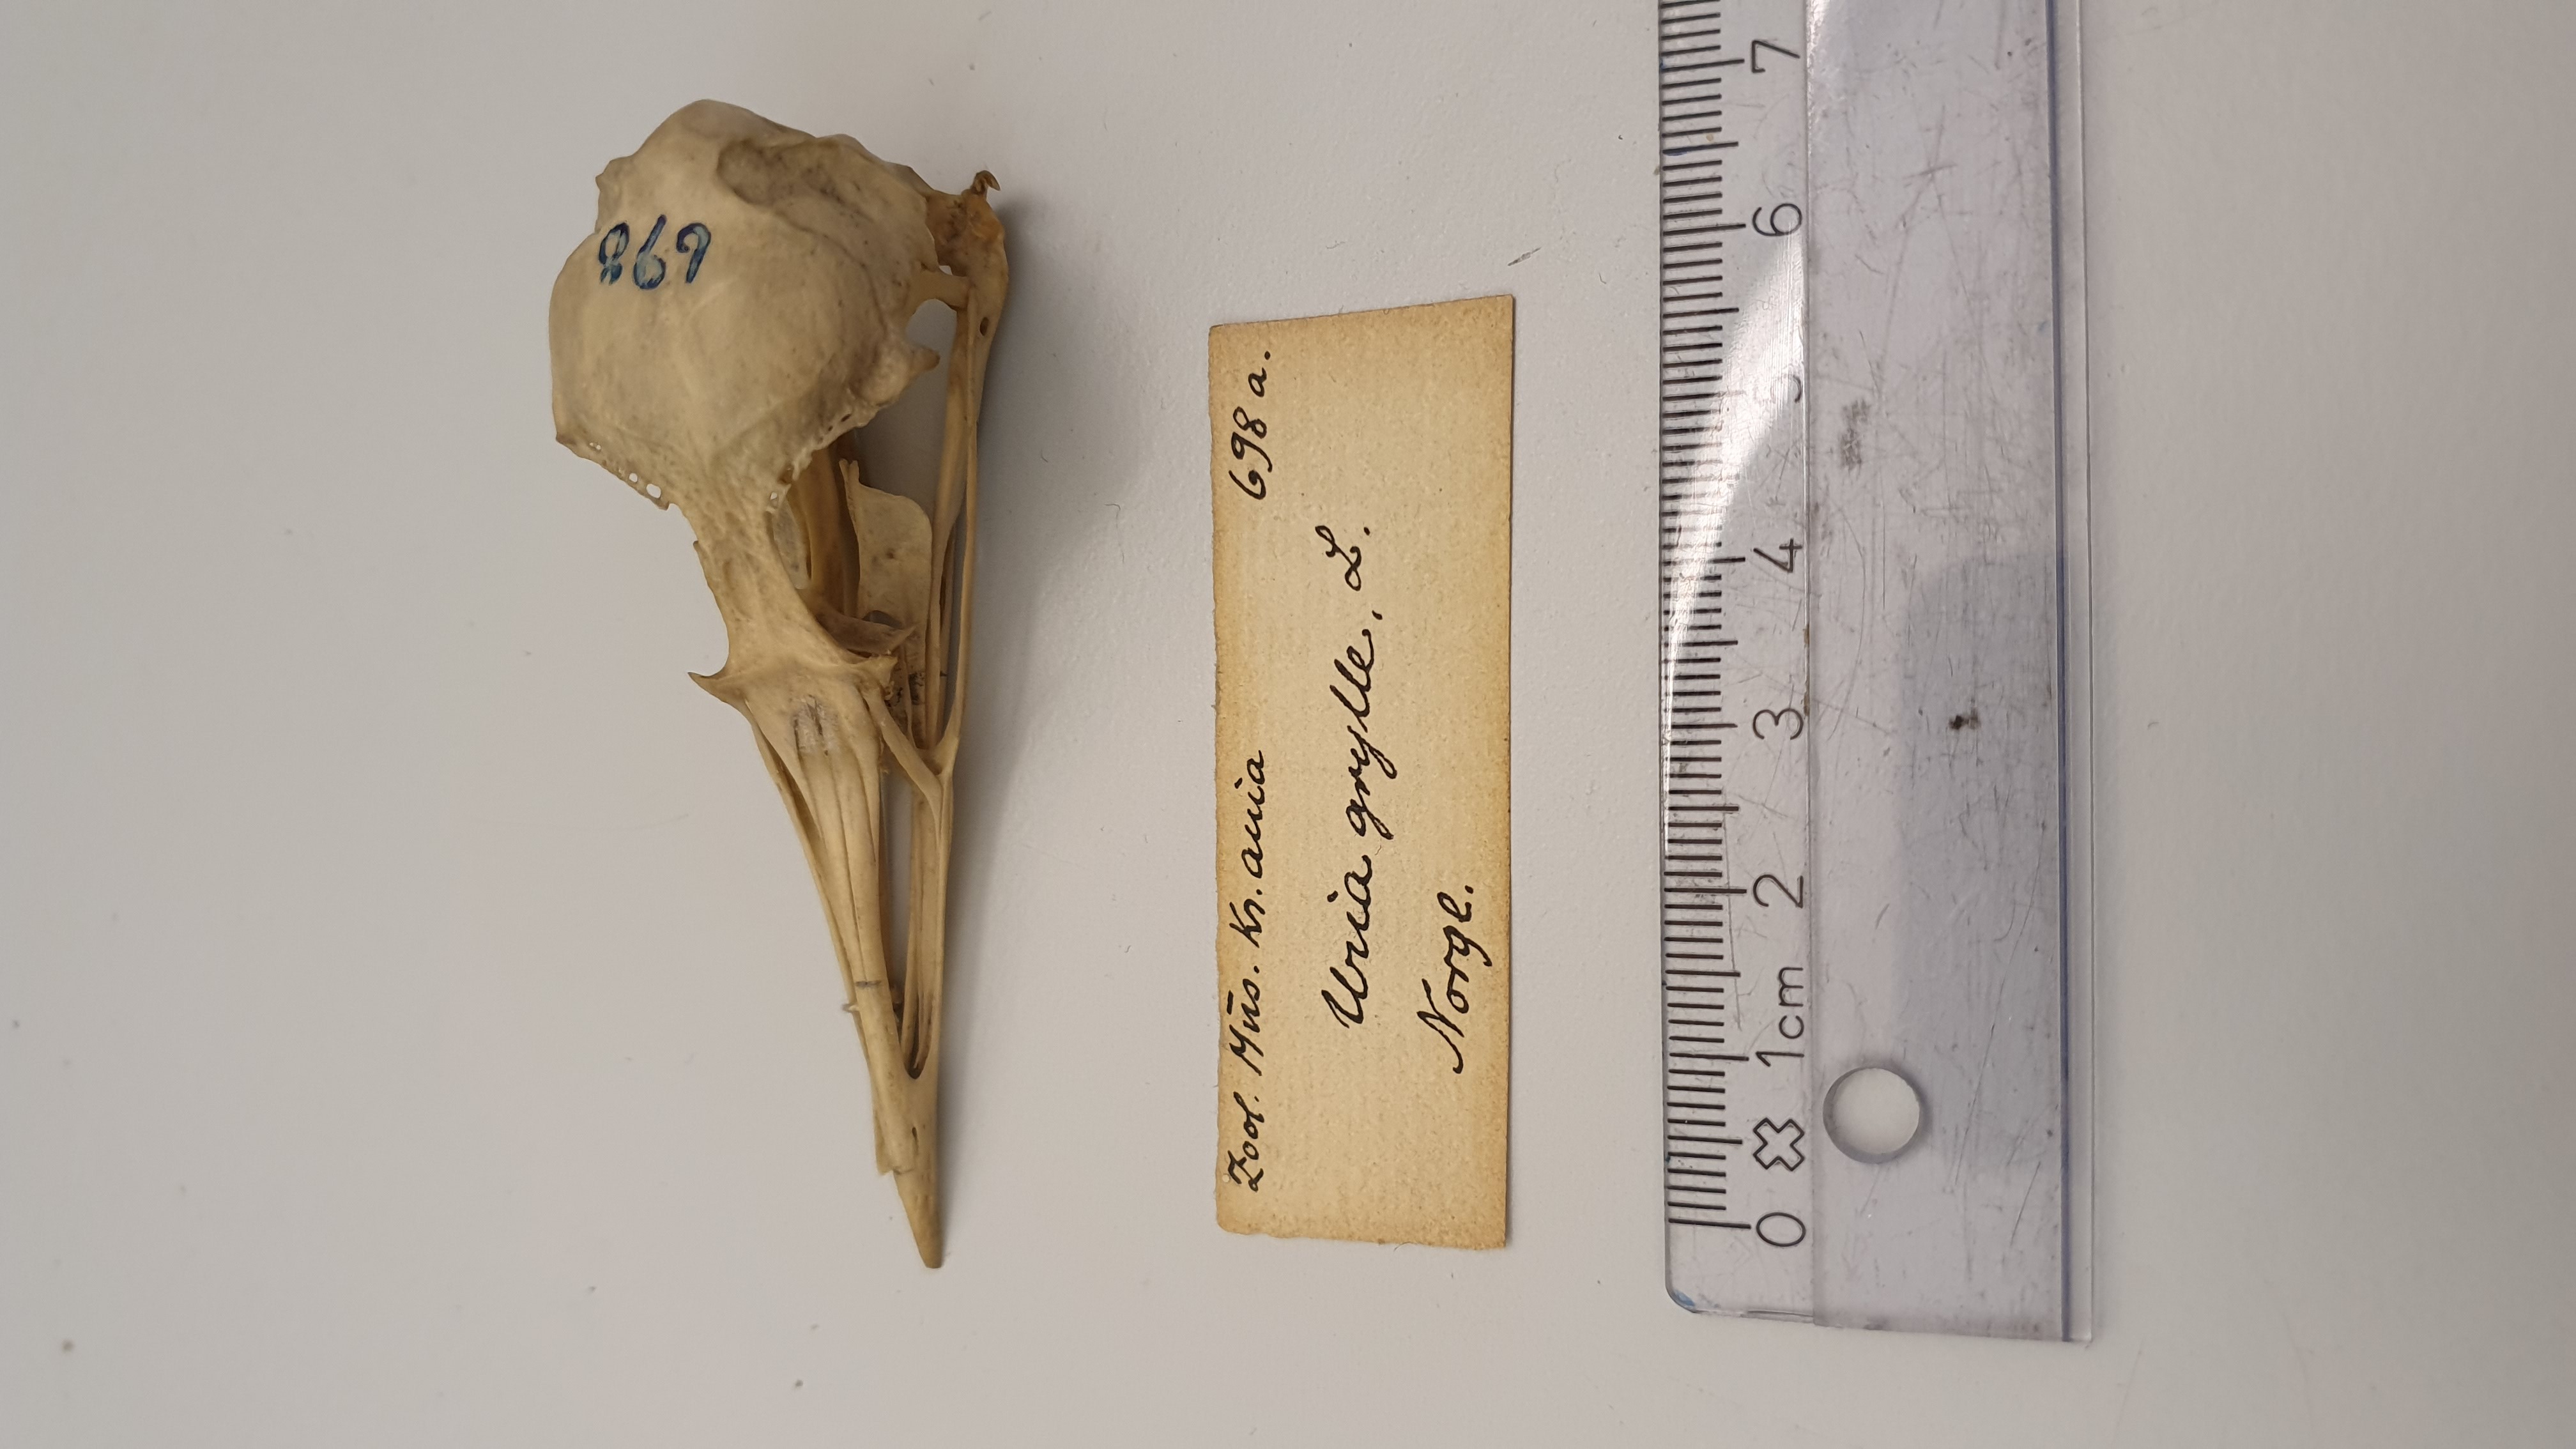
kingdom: Animalia
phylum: Chordata
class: Aves
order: Charadriiformes
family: Alcidae
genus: Cepphus
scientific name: Cepphus grylle
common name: Black guillemot
